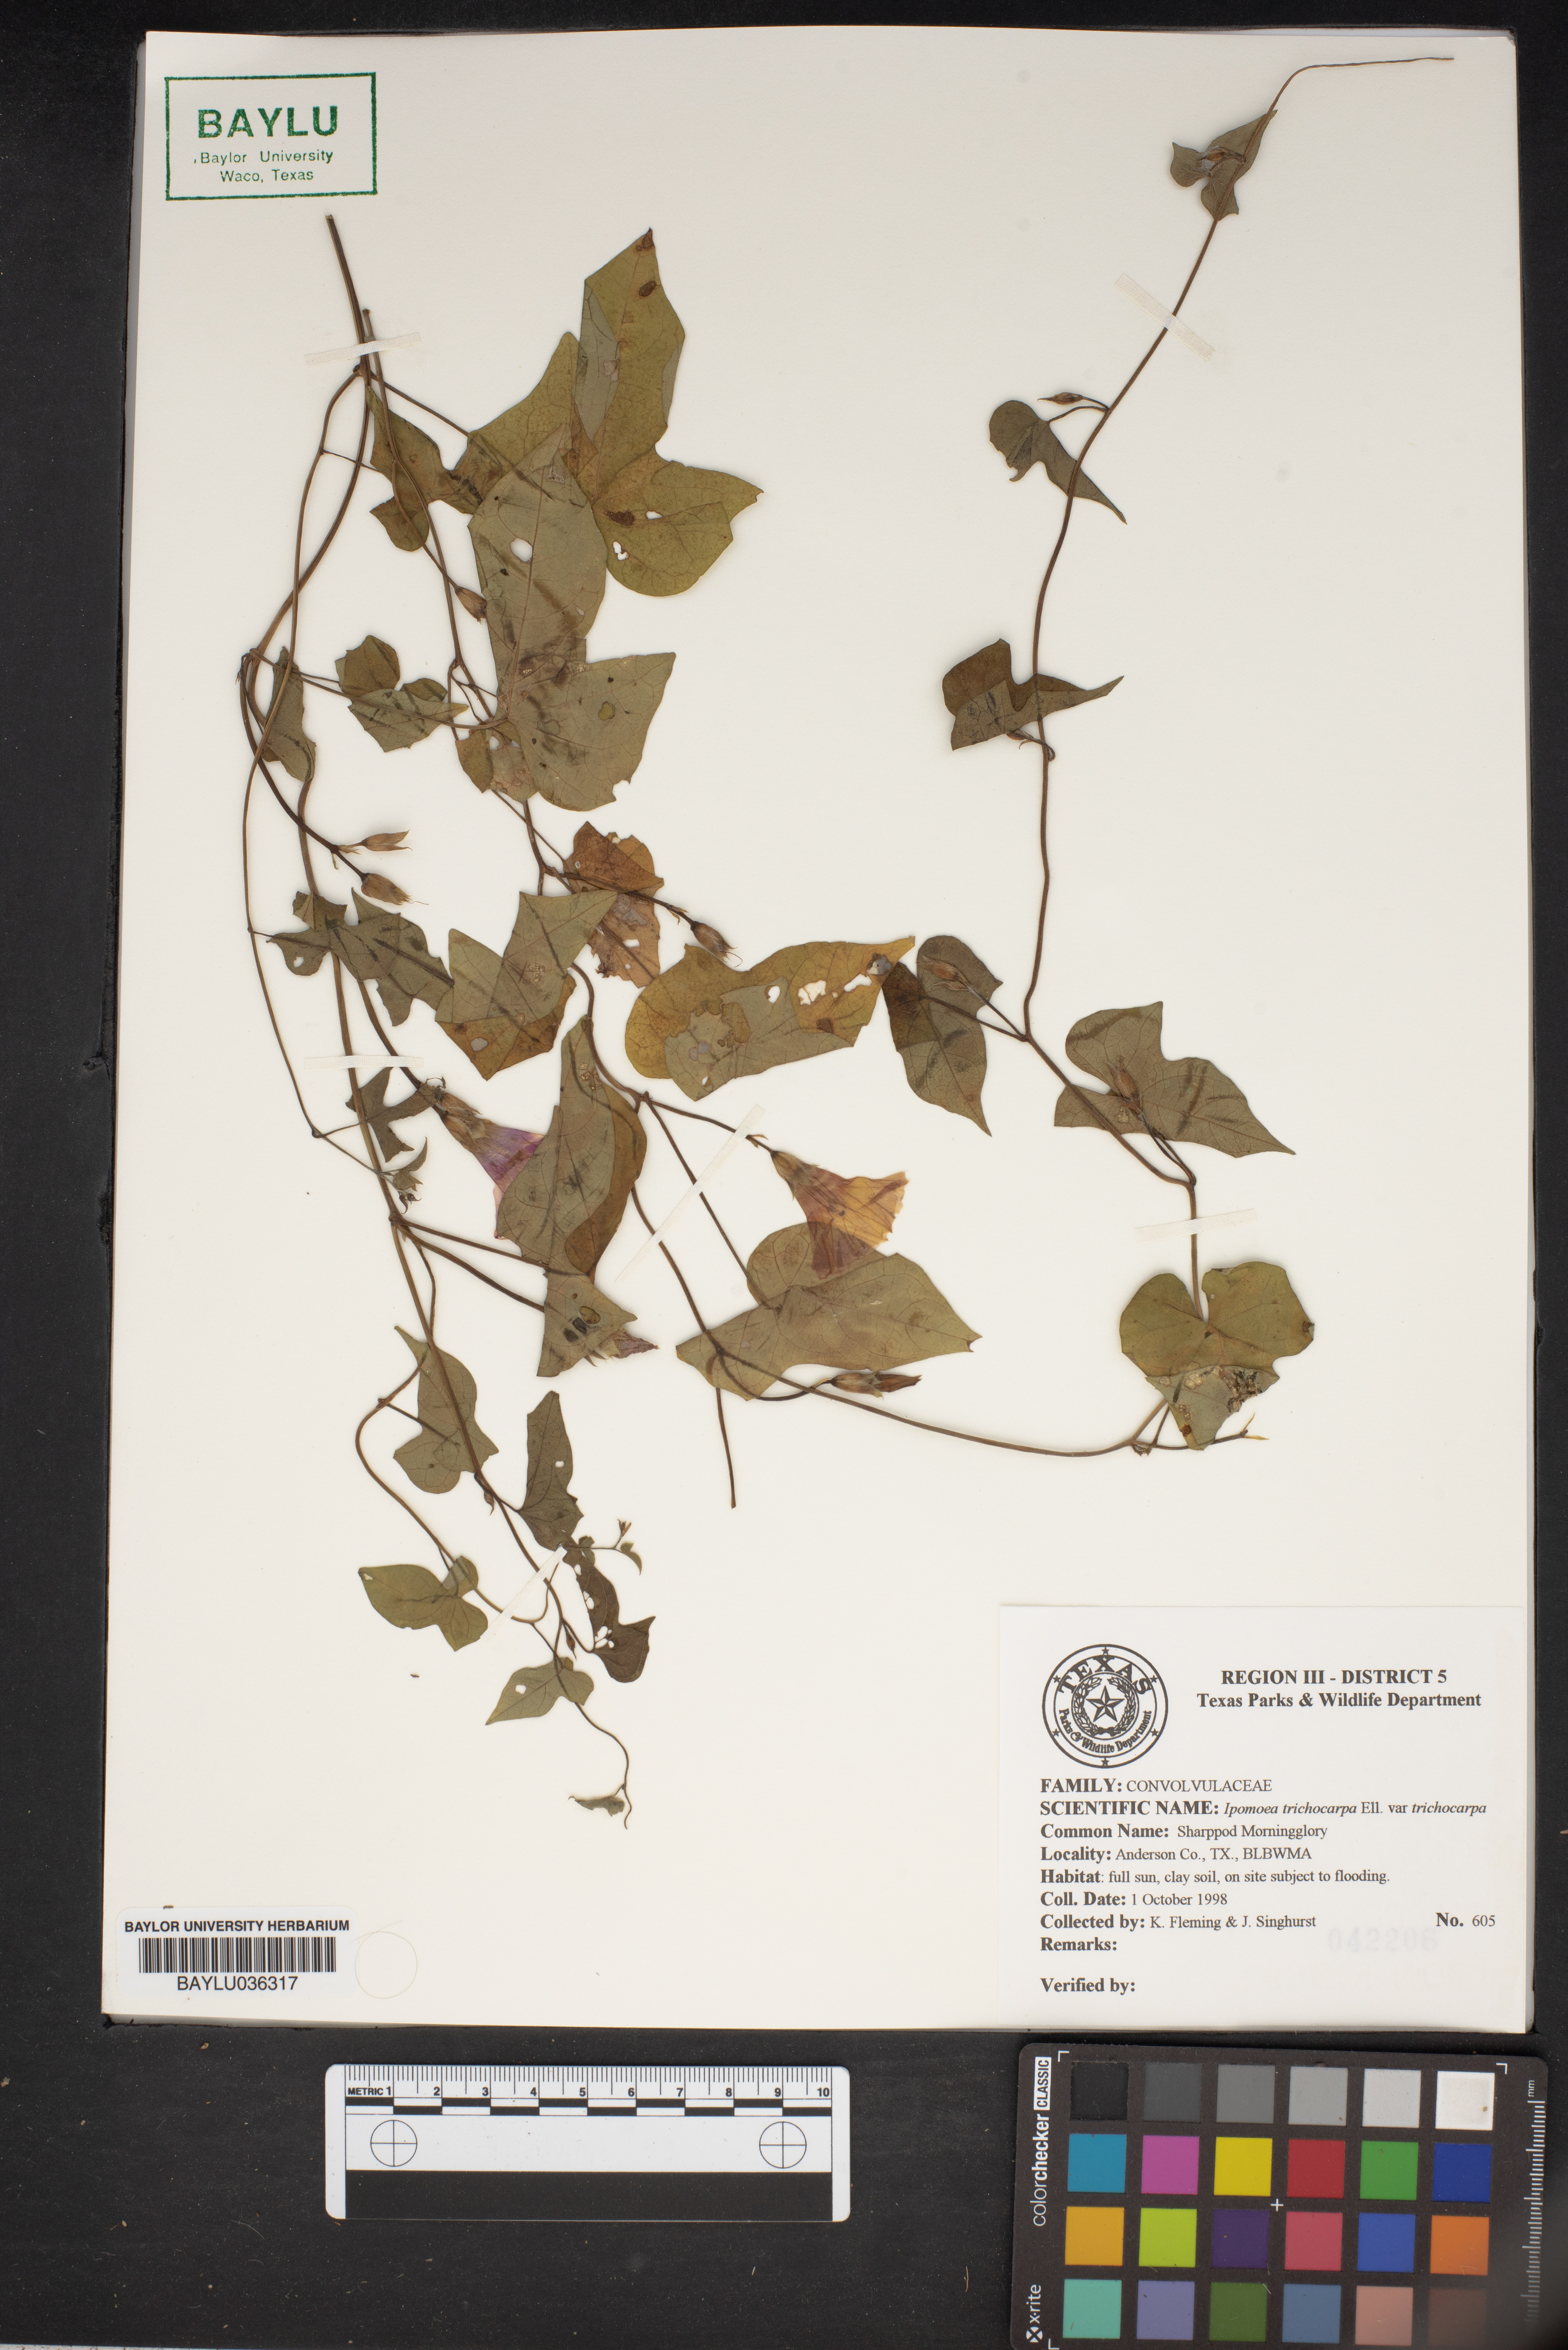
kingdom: Plantae
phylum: Tracheophyta
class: Magnoliopsida
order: Solanales
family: Convolvulaceae
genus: Ipomoea
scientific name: Ipomoea cordatotriloba
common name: Cotton morning glory
